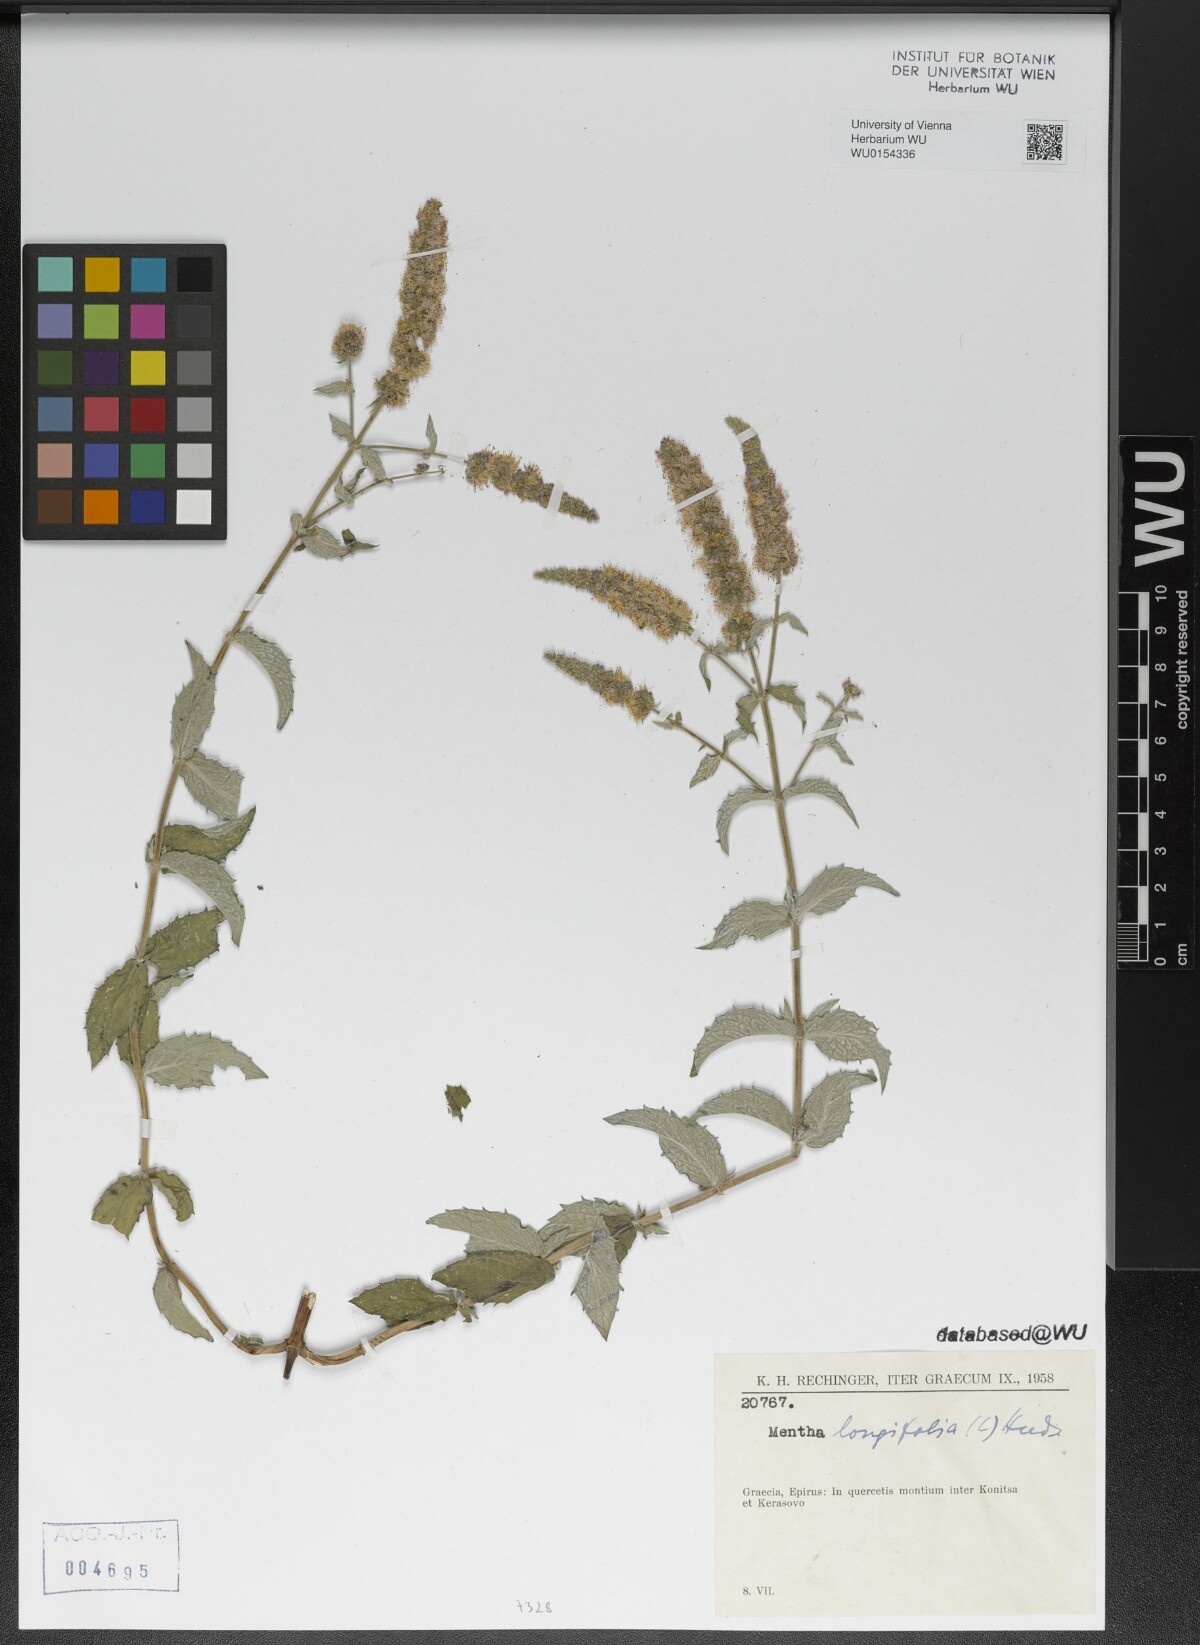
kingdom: Plantae
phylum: Tracheophyta
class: Magnoliopsida
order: Lamiales
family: Lamiaceae
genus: Mentha
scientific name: Mentha longifolia
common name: Horse mint
